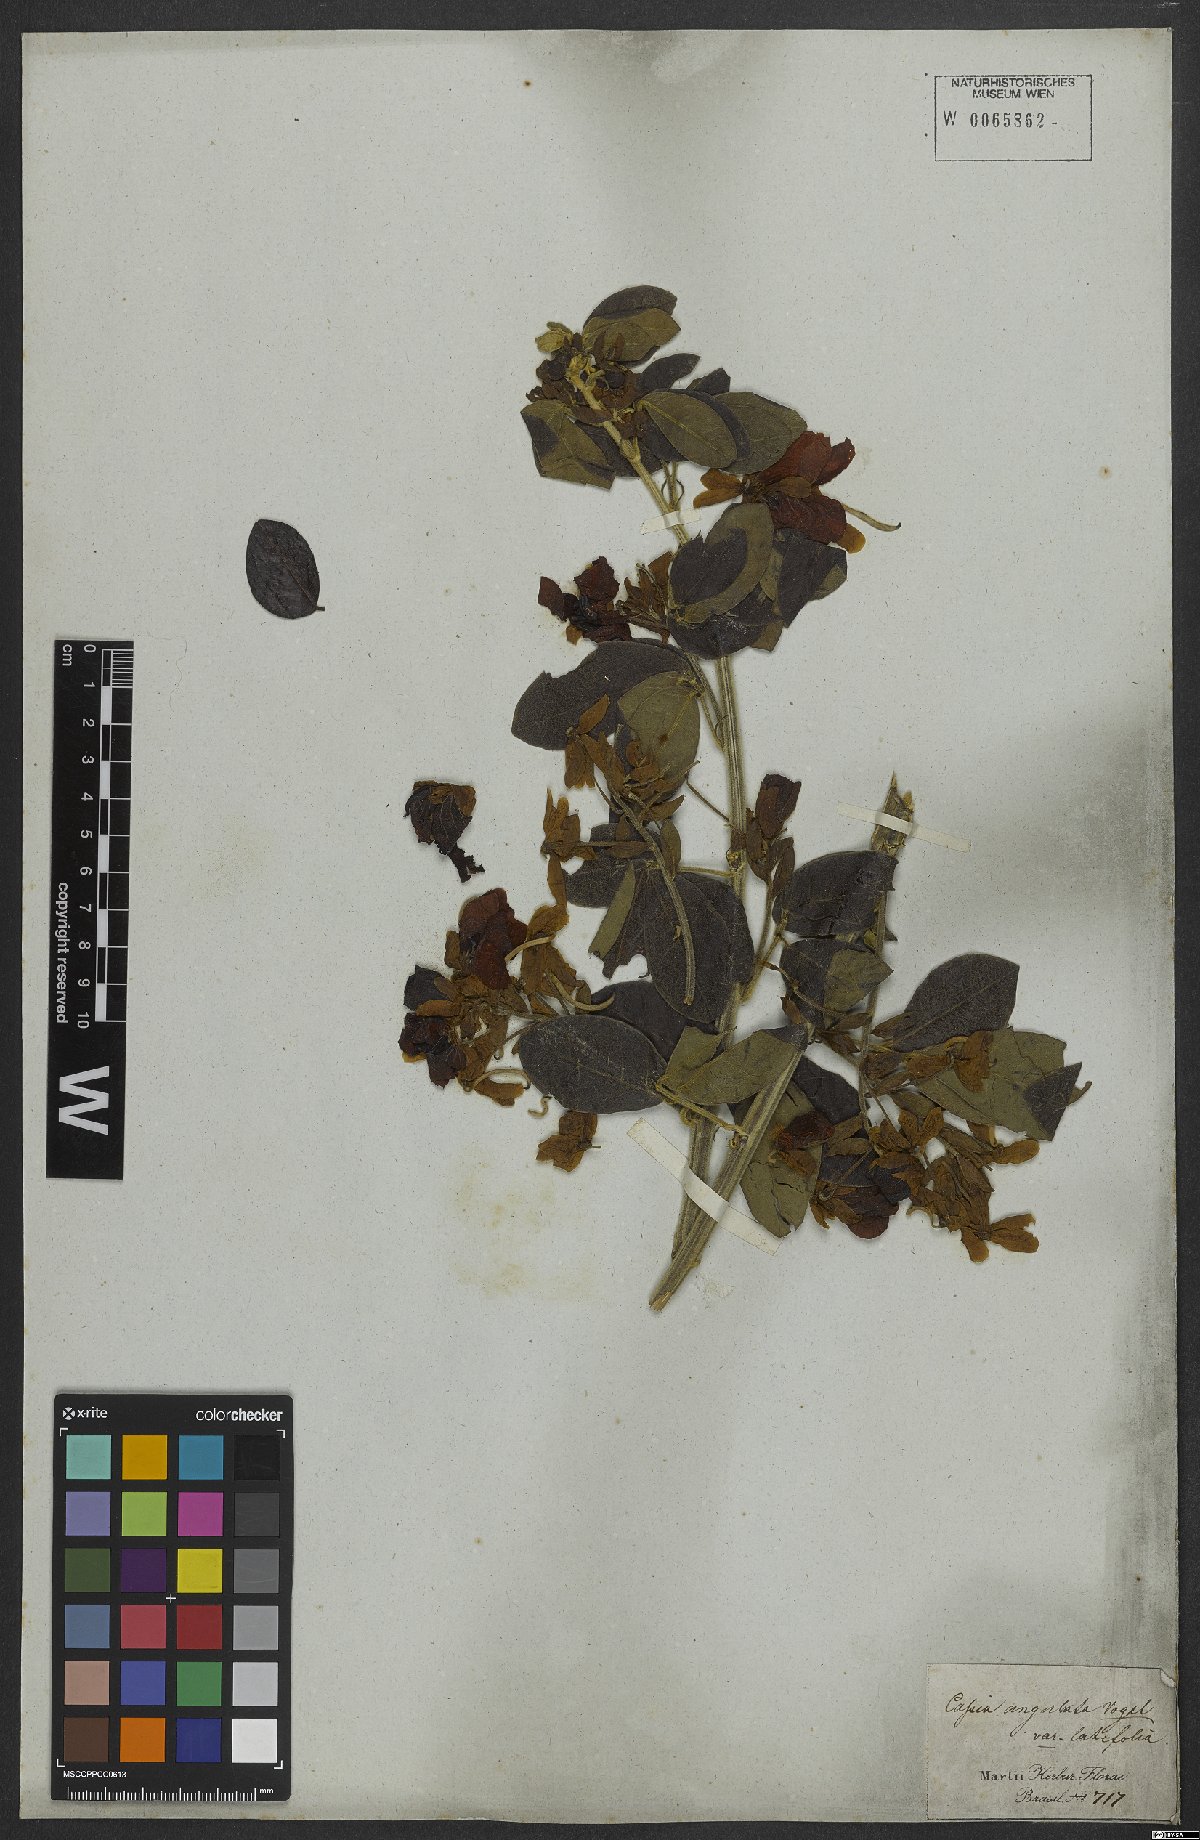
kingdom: Plantae
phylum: Tracheophyta
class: Magnoliopsida
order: Fabales
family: Fabaceae
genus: Senna
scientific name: Senna angulata
